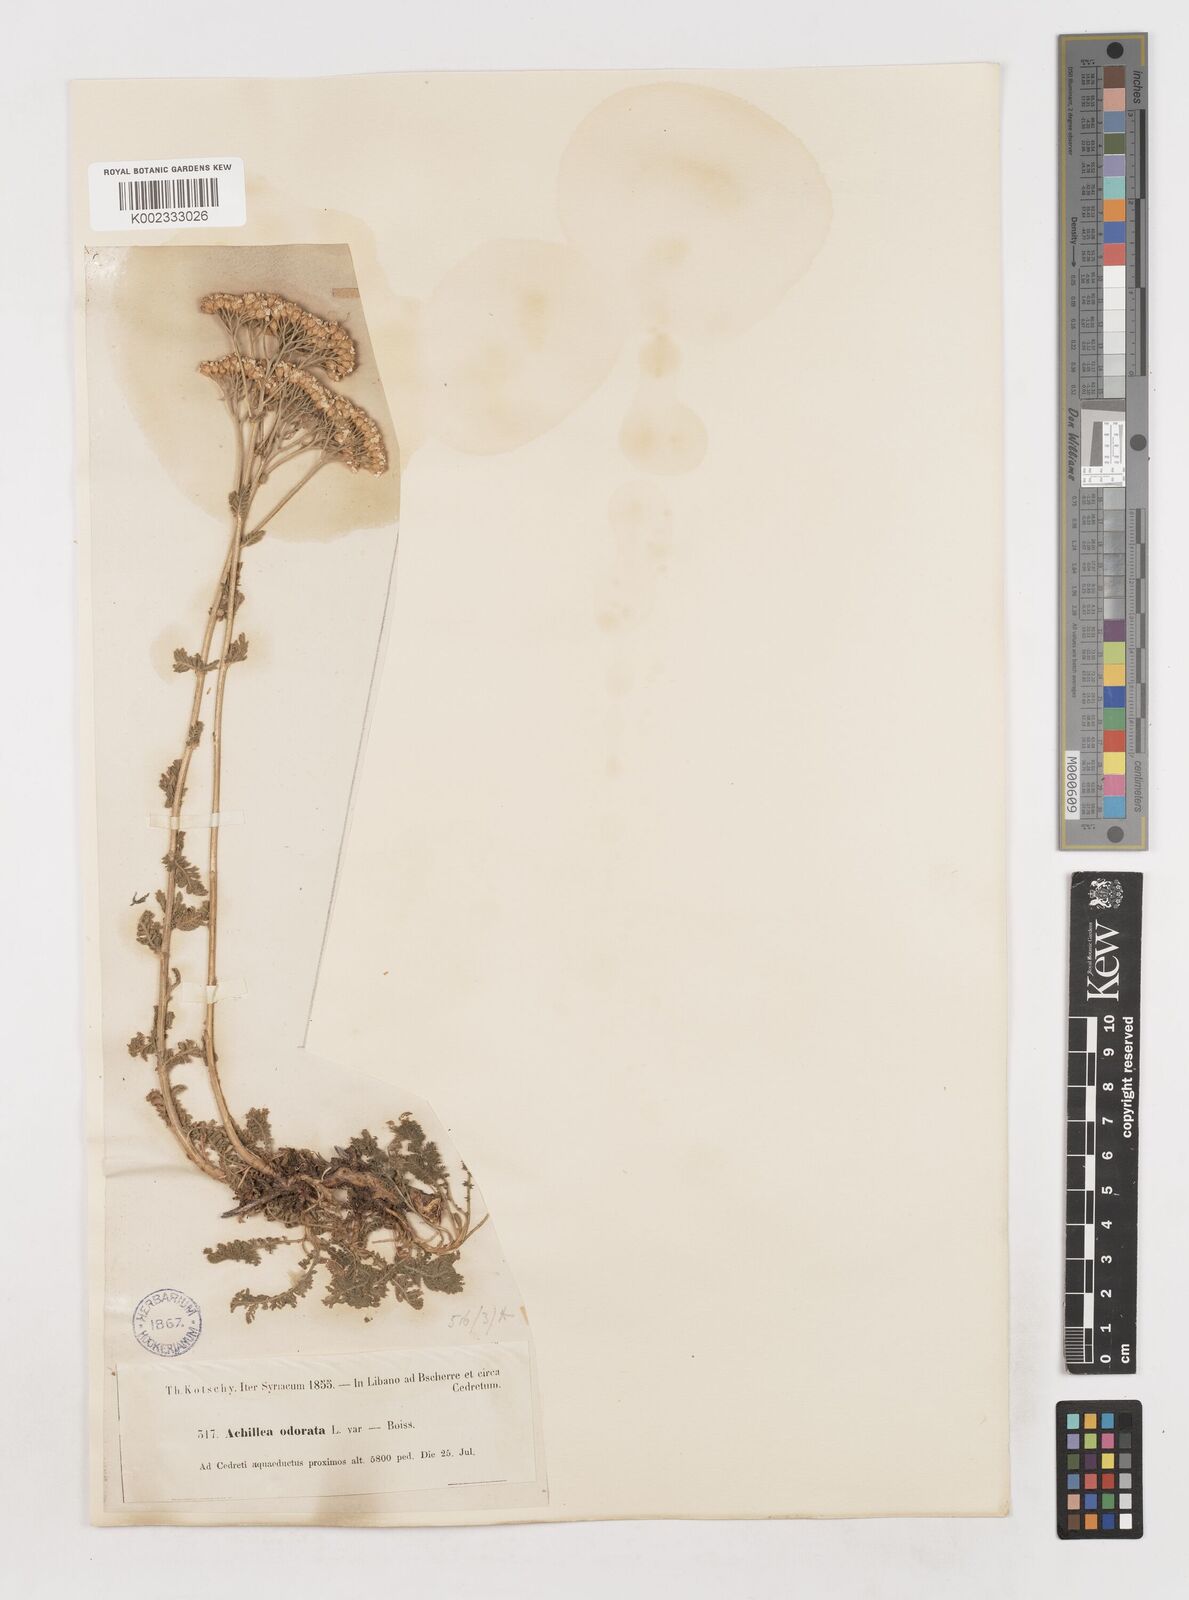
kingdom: Plantae
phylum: Tracheophyta
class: Magnoliopsida
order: Asterales
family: Asteraceae
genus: Achillea
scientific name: Achillea odorata
